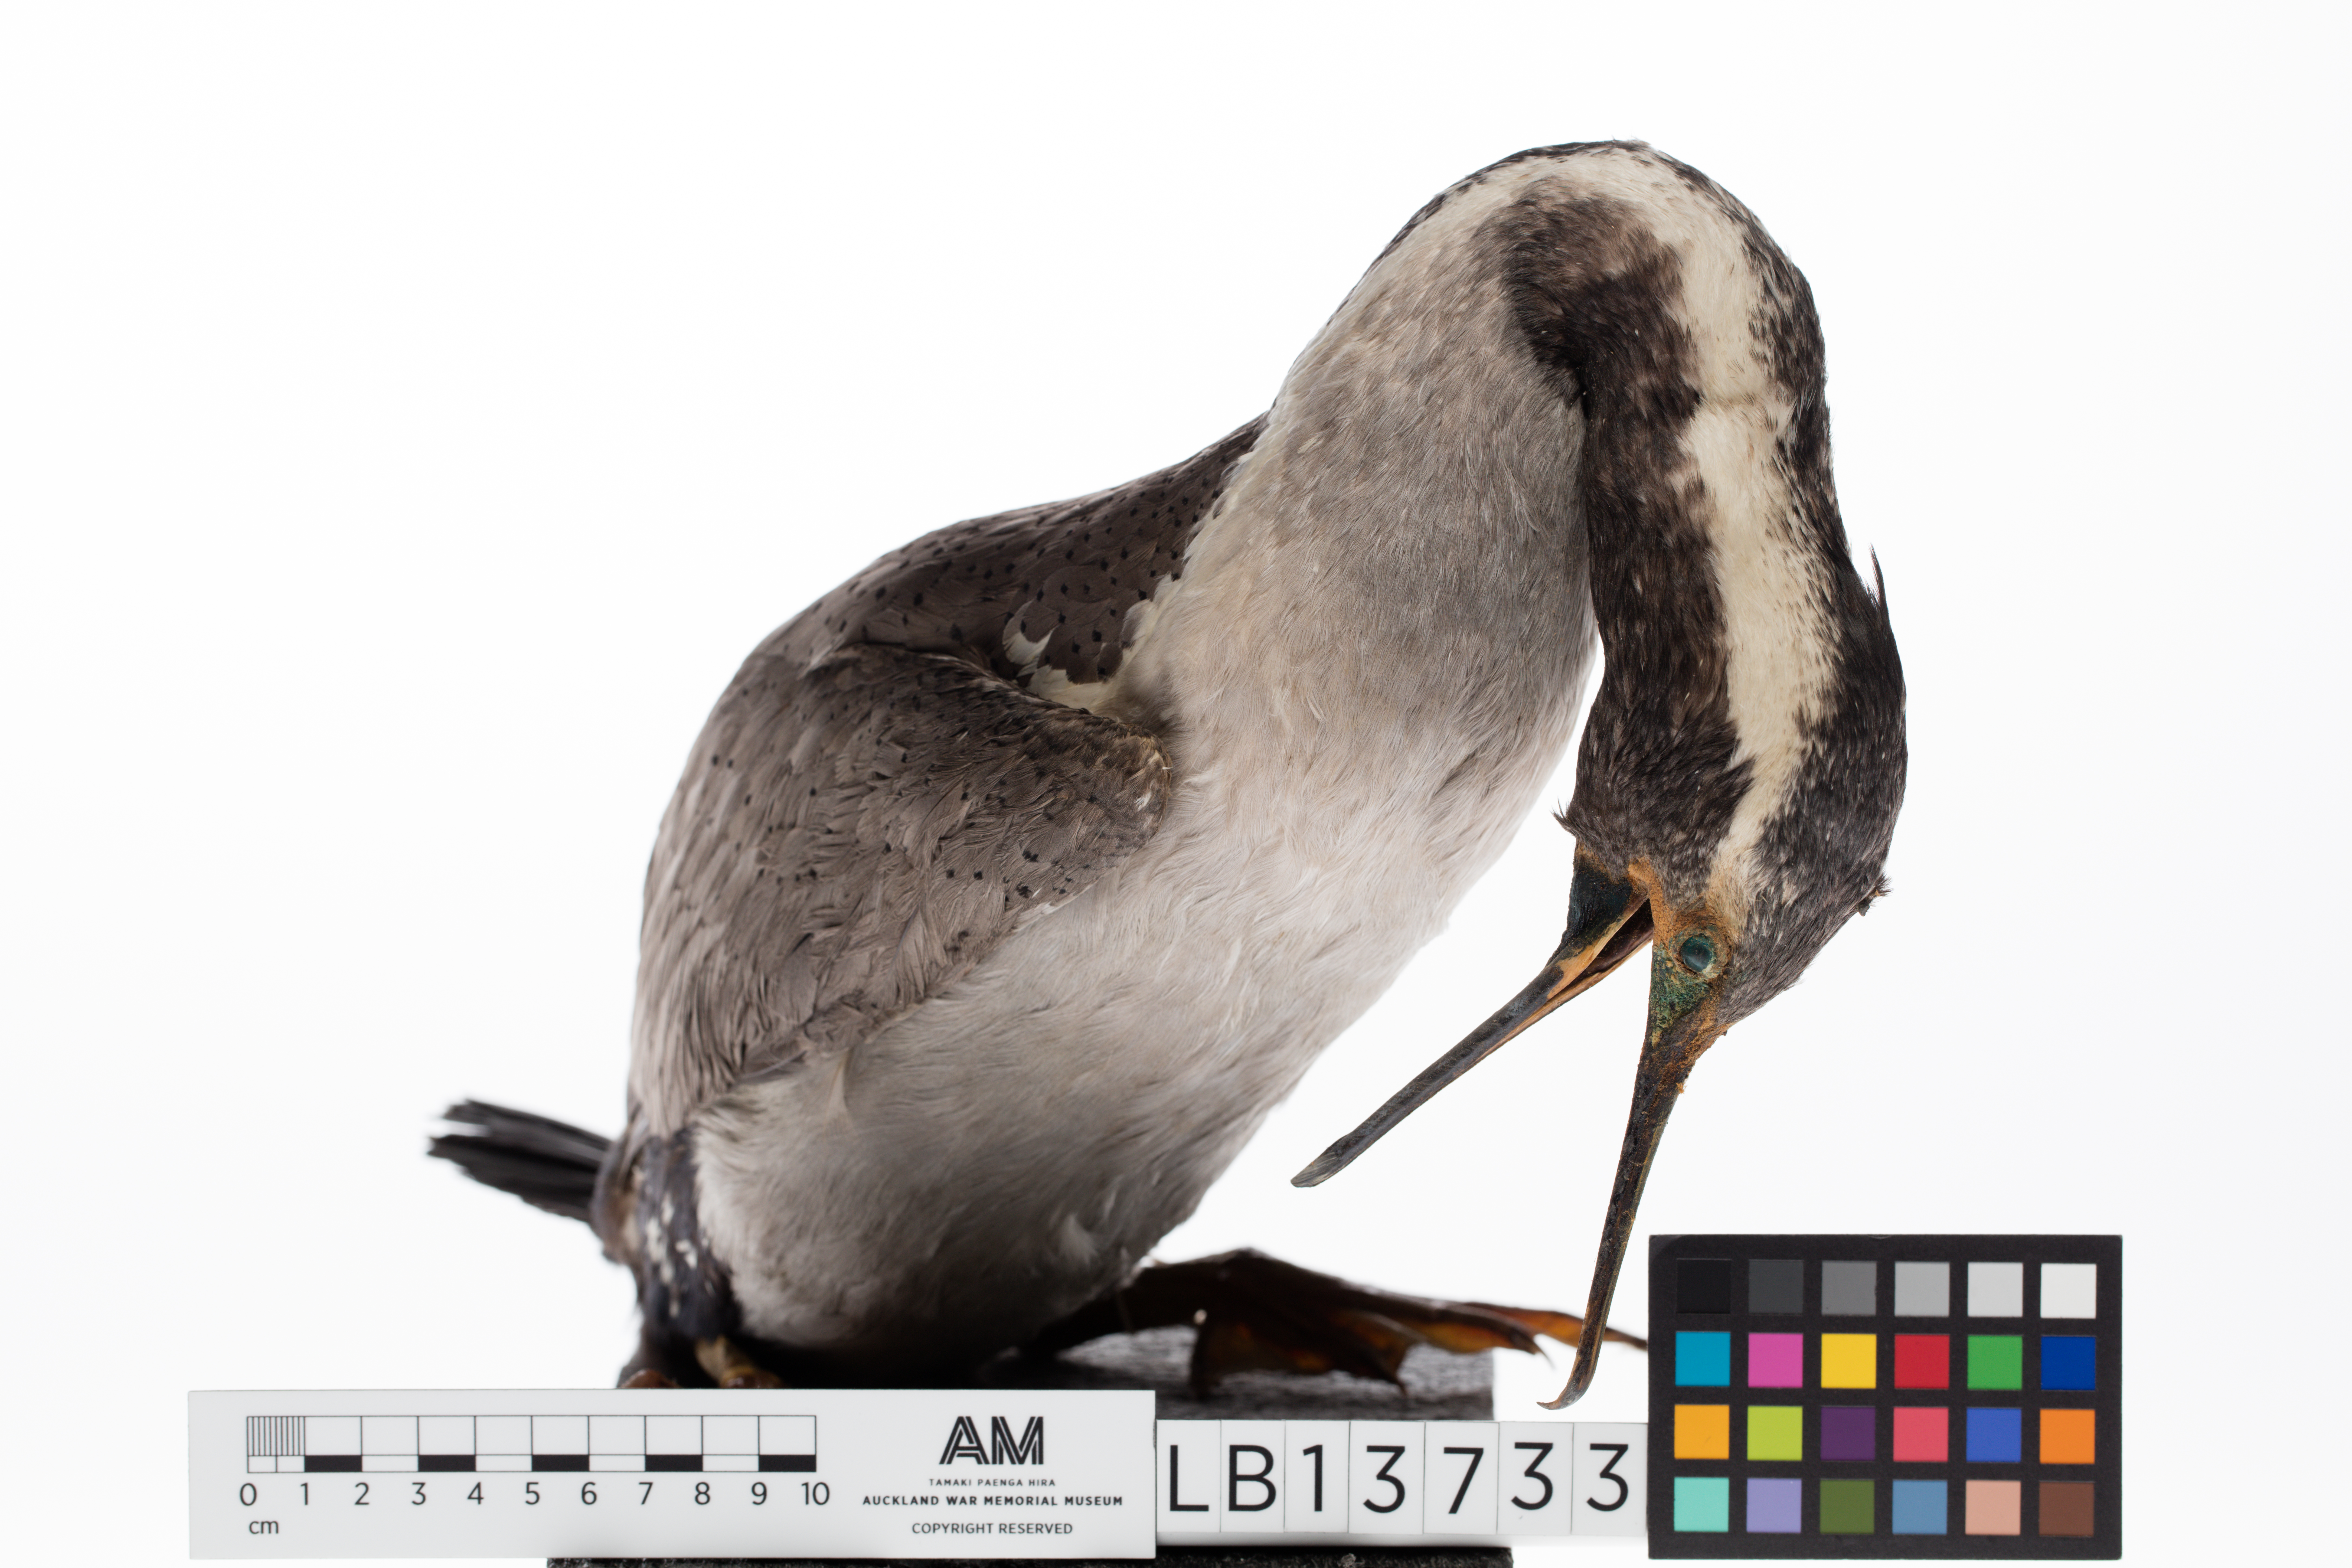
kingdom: Animalia
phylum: Chordata
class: Aves
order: Suliformes
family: Phalacrocoracidae
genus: Phalacrocorax
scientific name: Phalacrocorax punctatus
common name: Spotted shag
